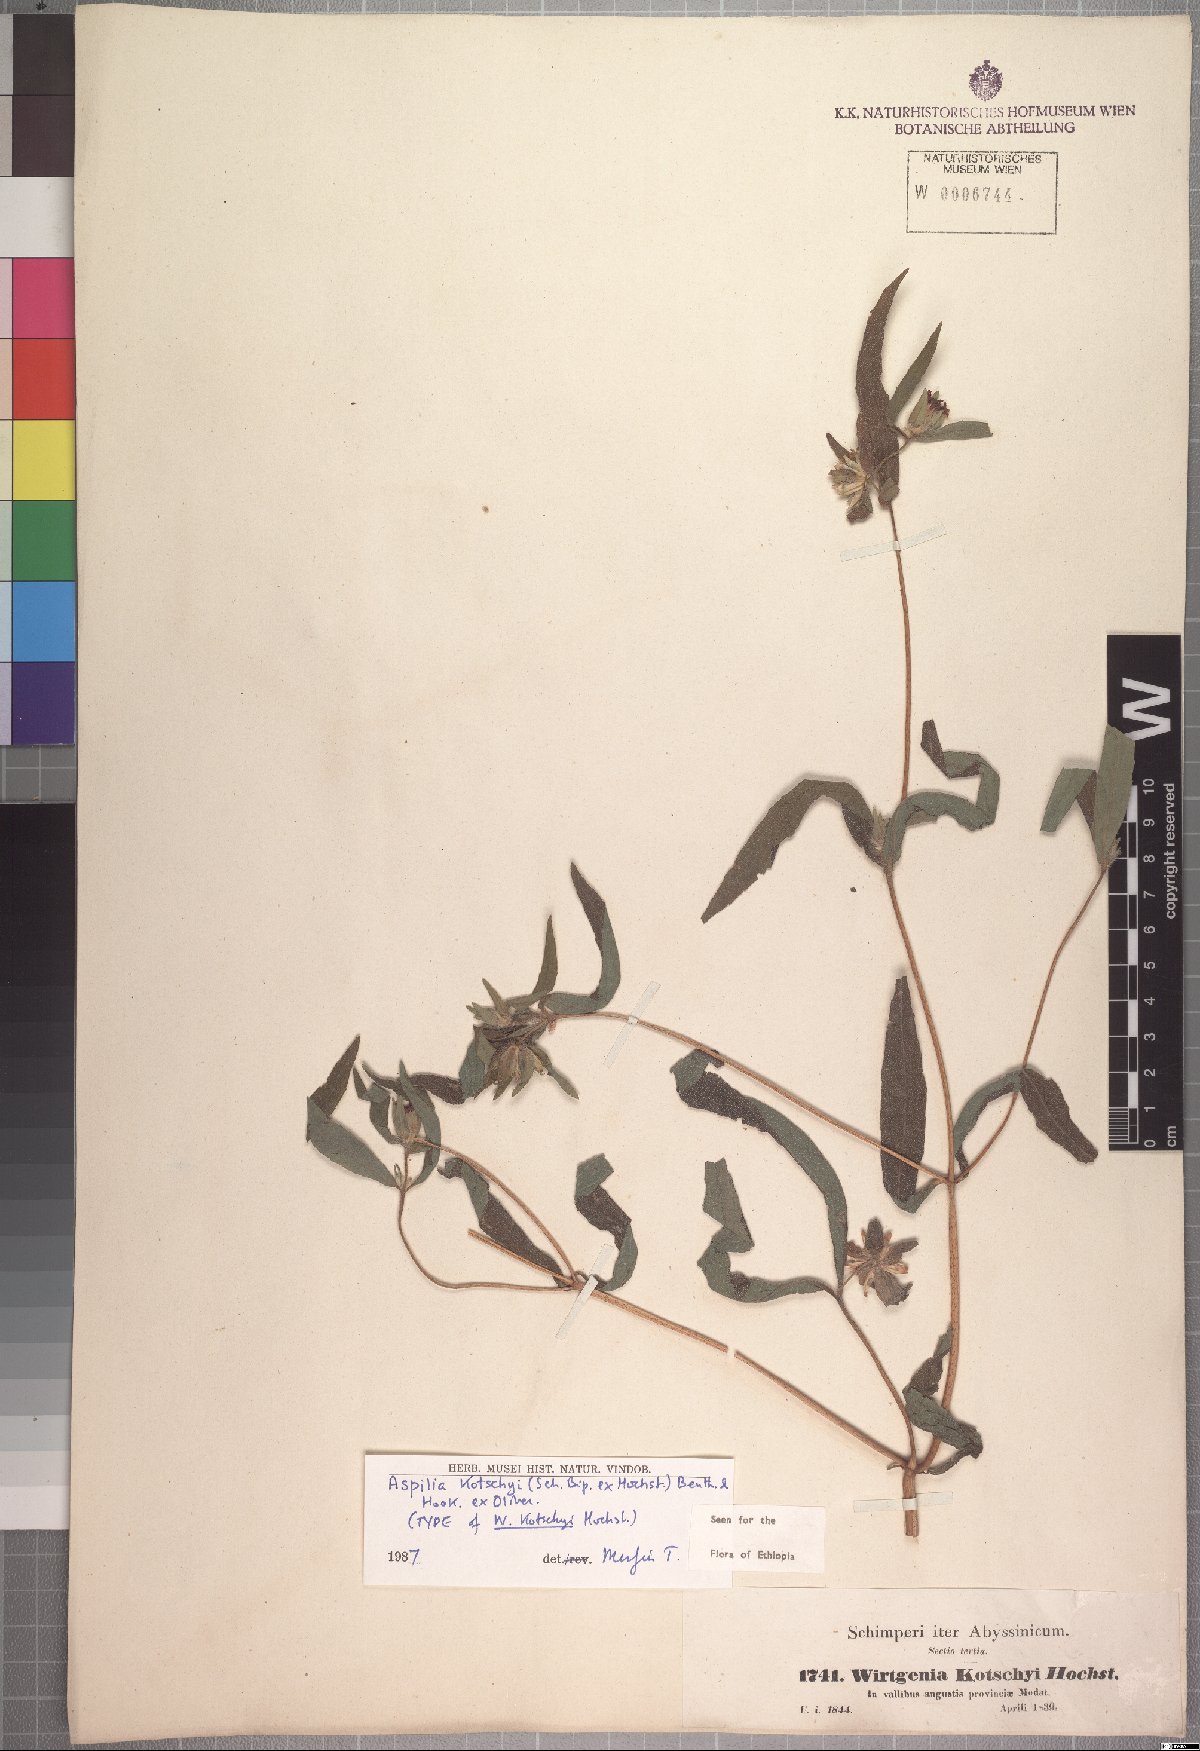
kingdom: Plantae
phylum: Tracheophyta
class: Magnoliopsida
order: Asterales
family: Asteraceae
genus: Aspilia
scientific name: Aspilia kotschyi
